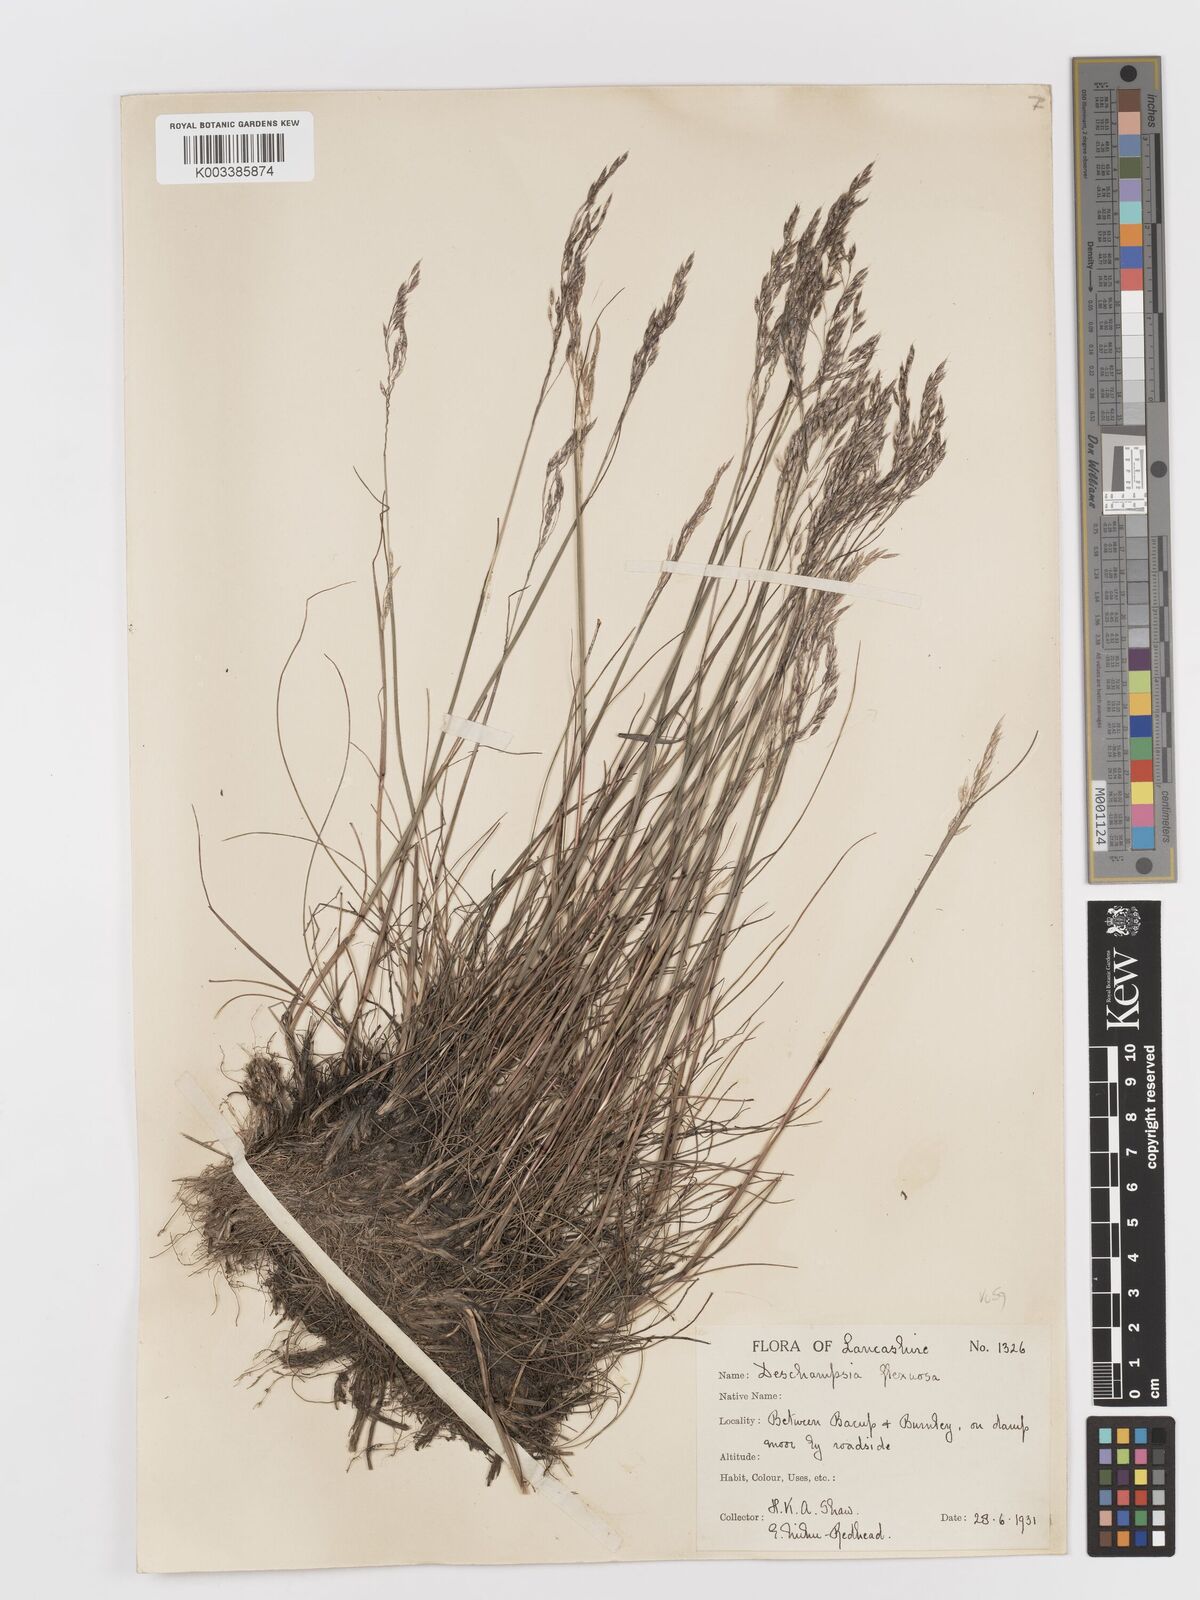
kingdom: Plantae
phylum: Tracheophyta
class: Liliopsida
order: Poales
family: Poaceae
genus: Avenella
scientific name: Avenella flexuosa
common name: Wavy hairgrass
